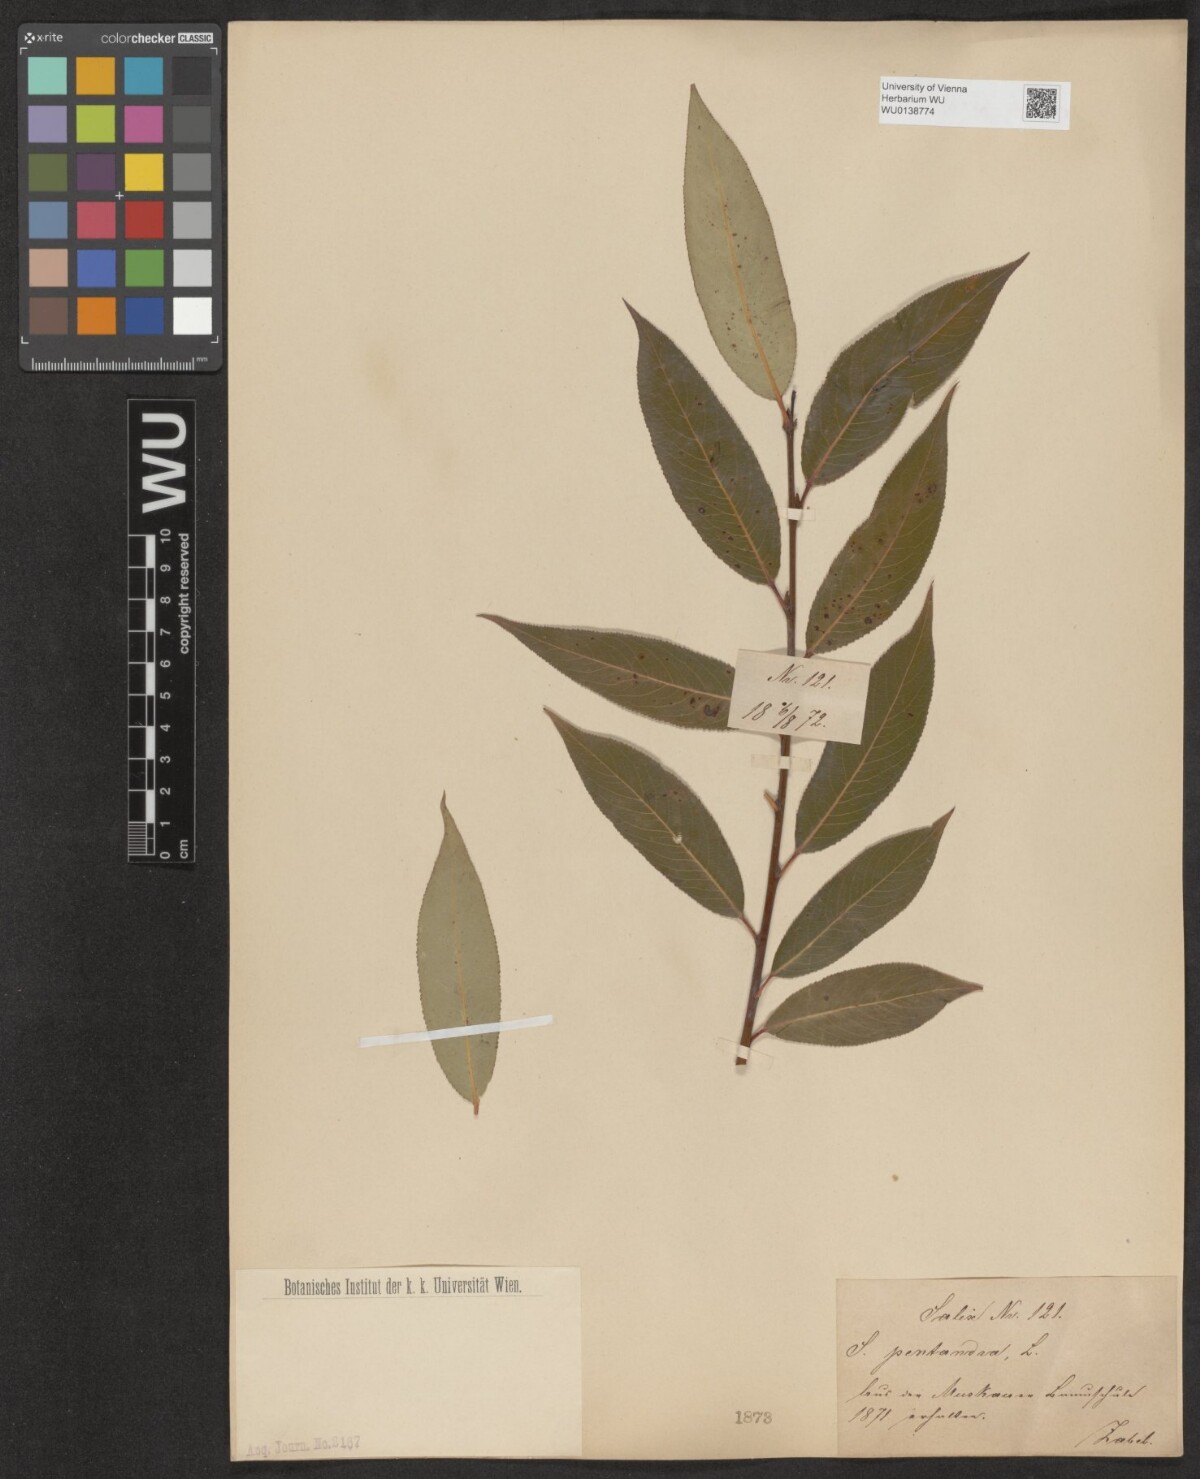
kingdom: Plantae
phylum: Tracheophyta
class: Magnoliopsida
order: Malpighiales
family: Salicaceae
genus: Salix
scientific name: Salix pentandra
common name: Bay willow
